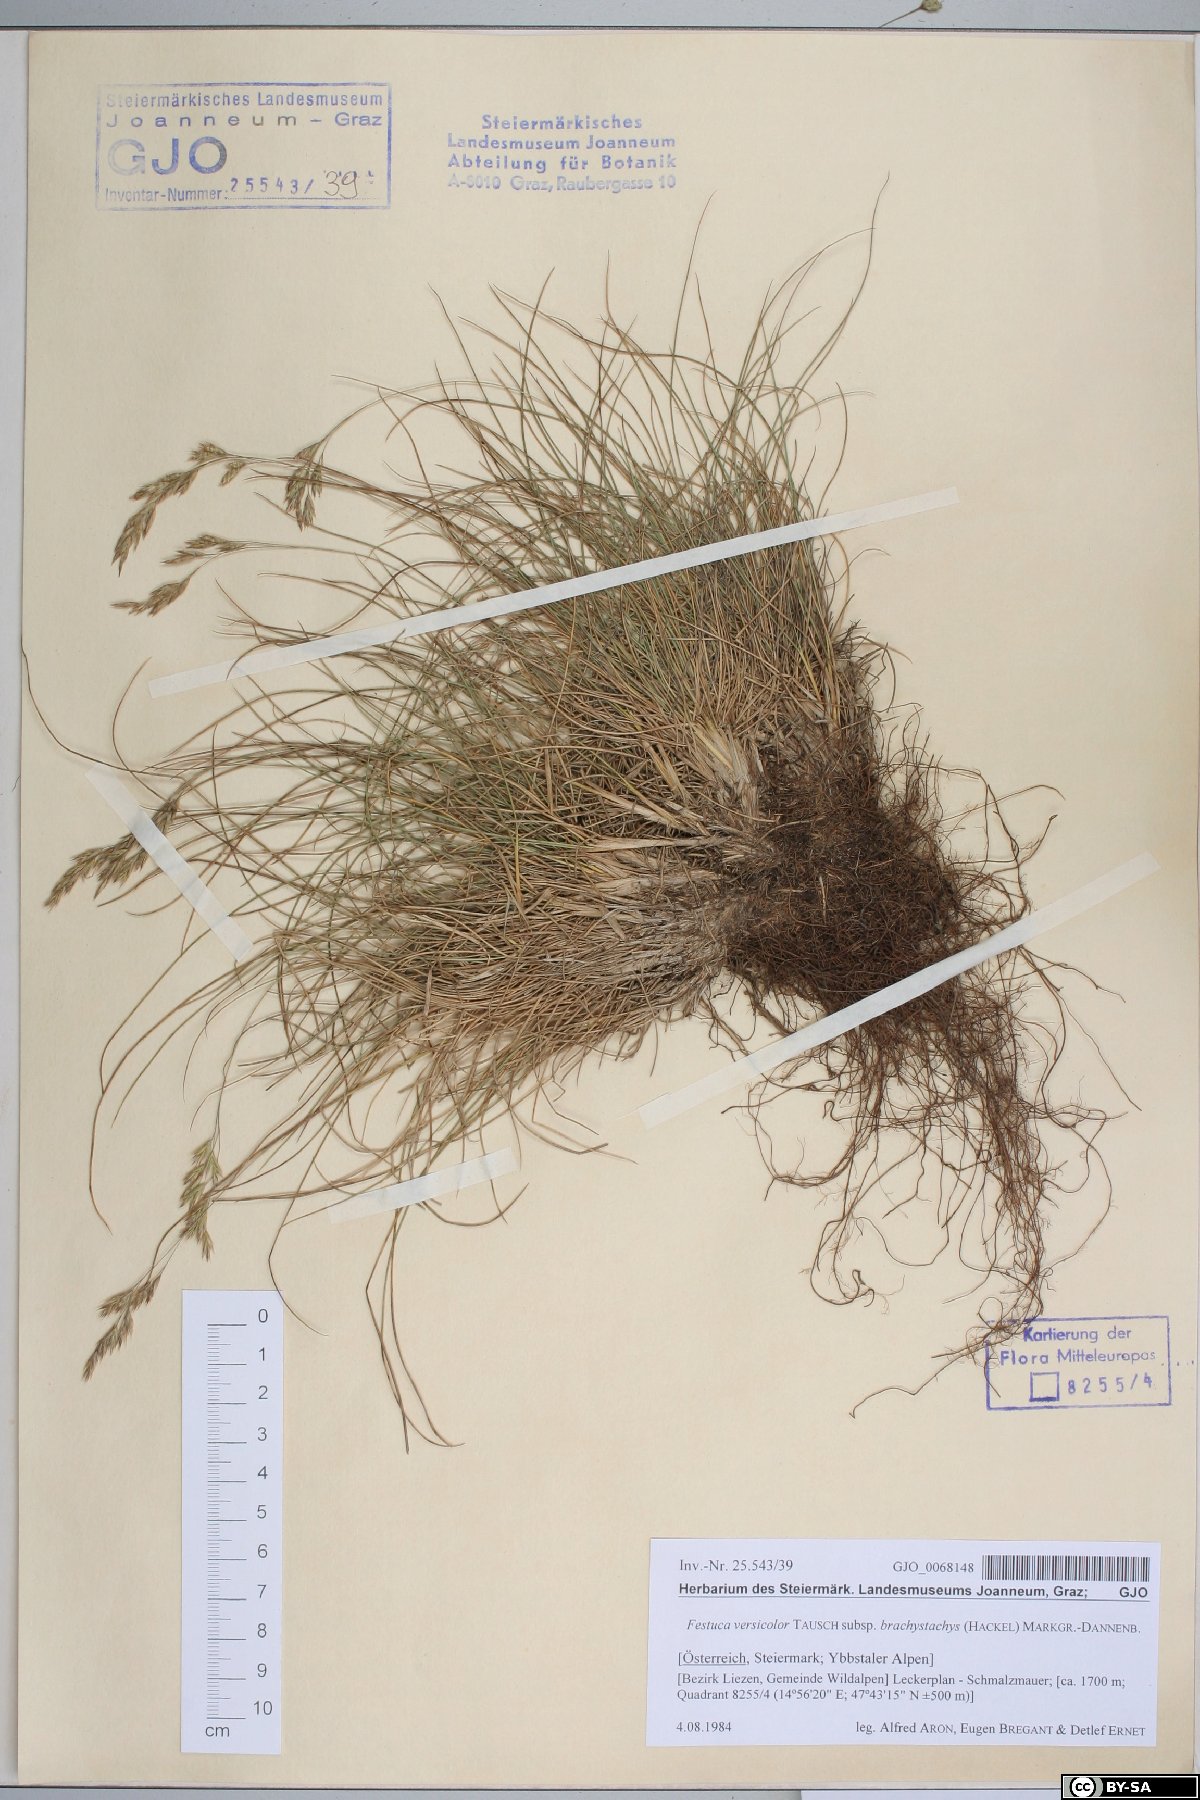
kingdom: Plantae
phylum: Tracheophyta
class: Liliopsida
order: Poales
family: Poaceae
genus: Festuca
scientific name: Festuca varia
